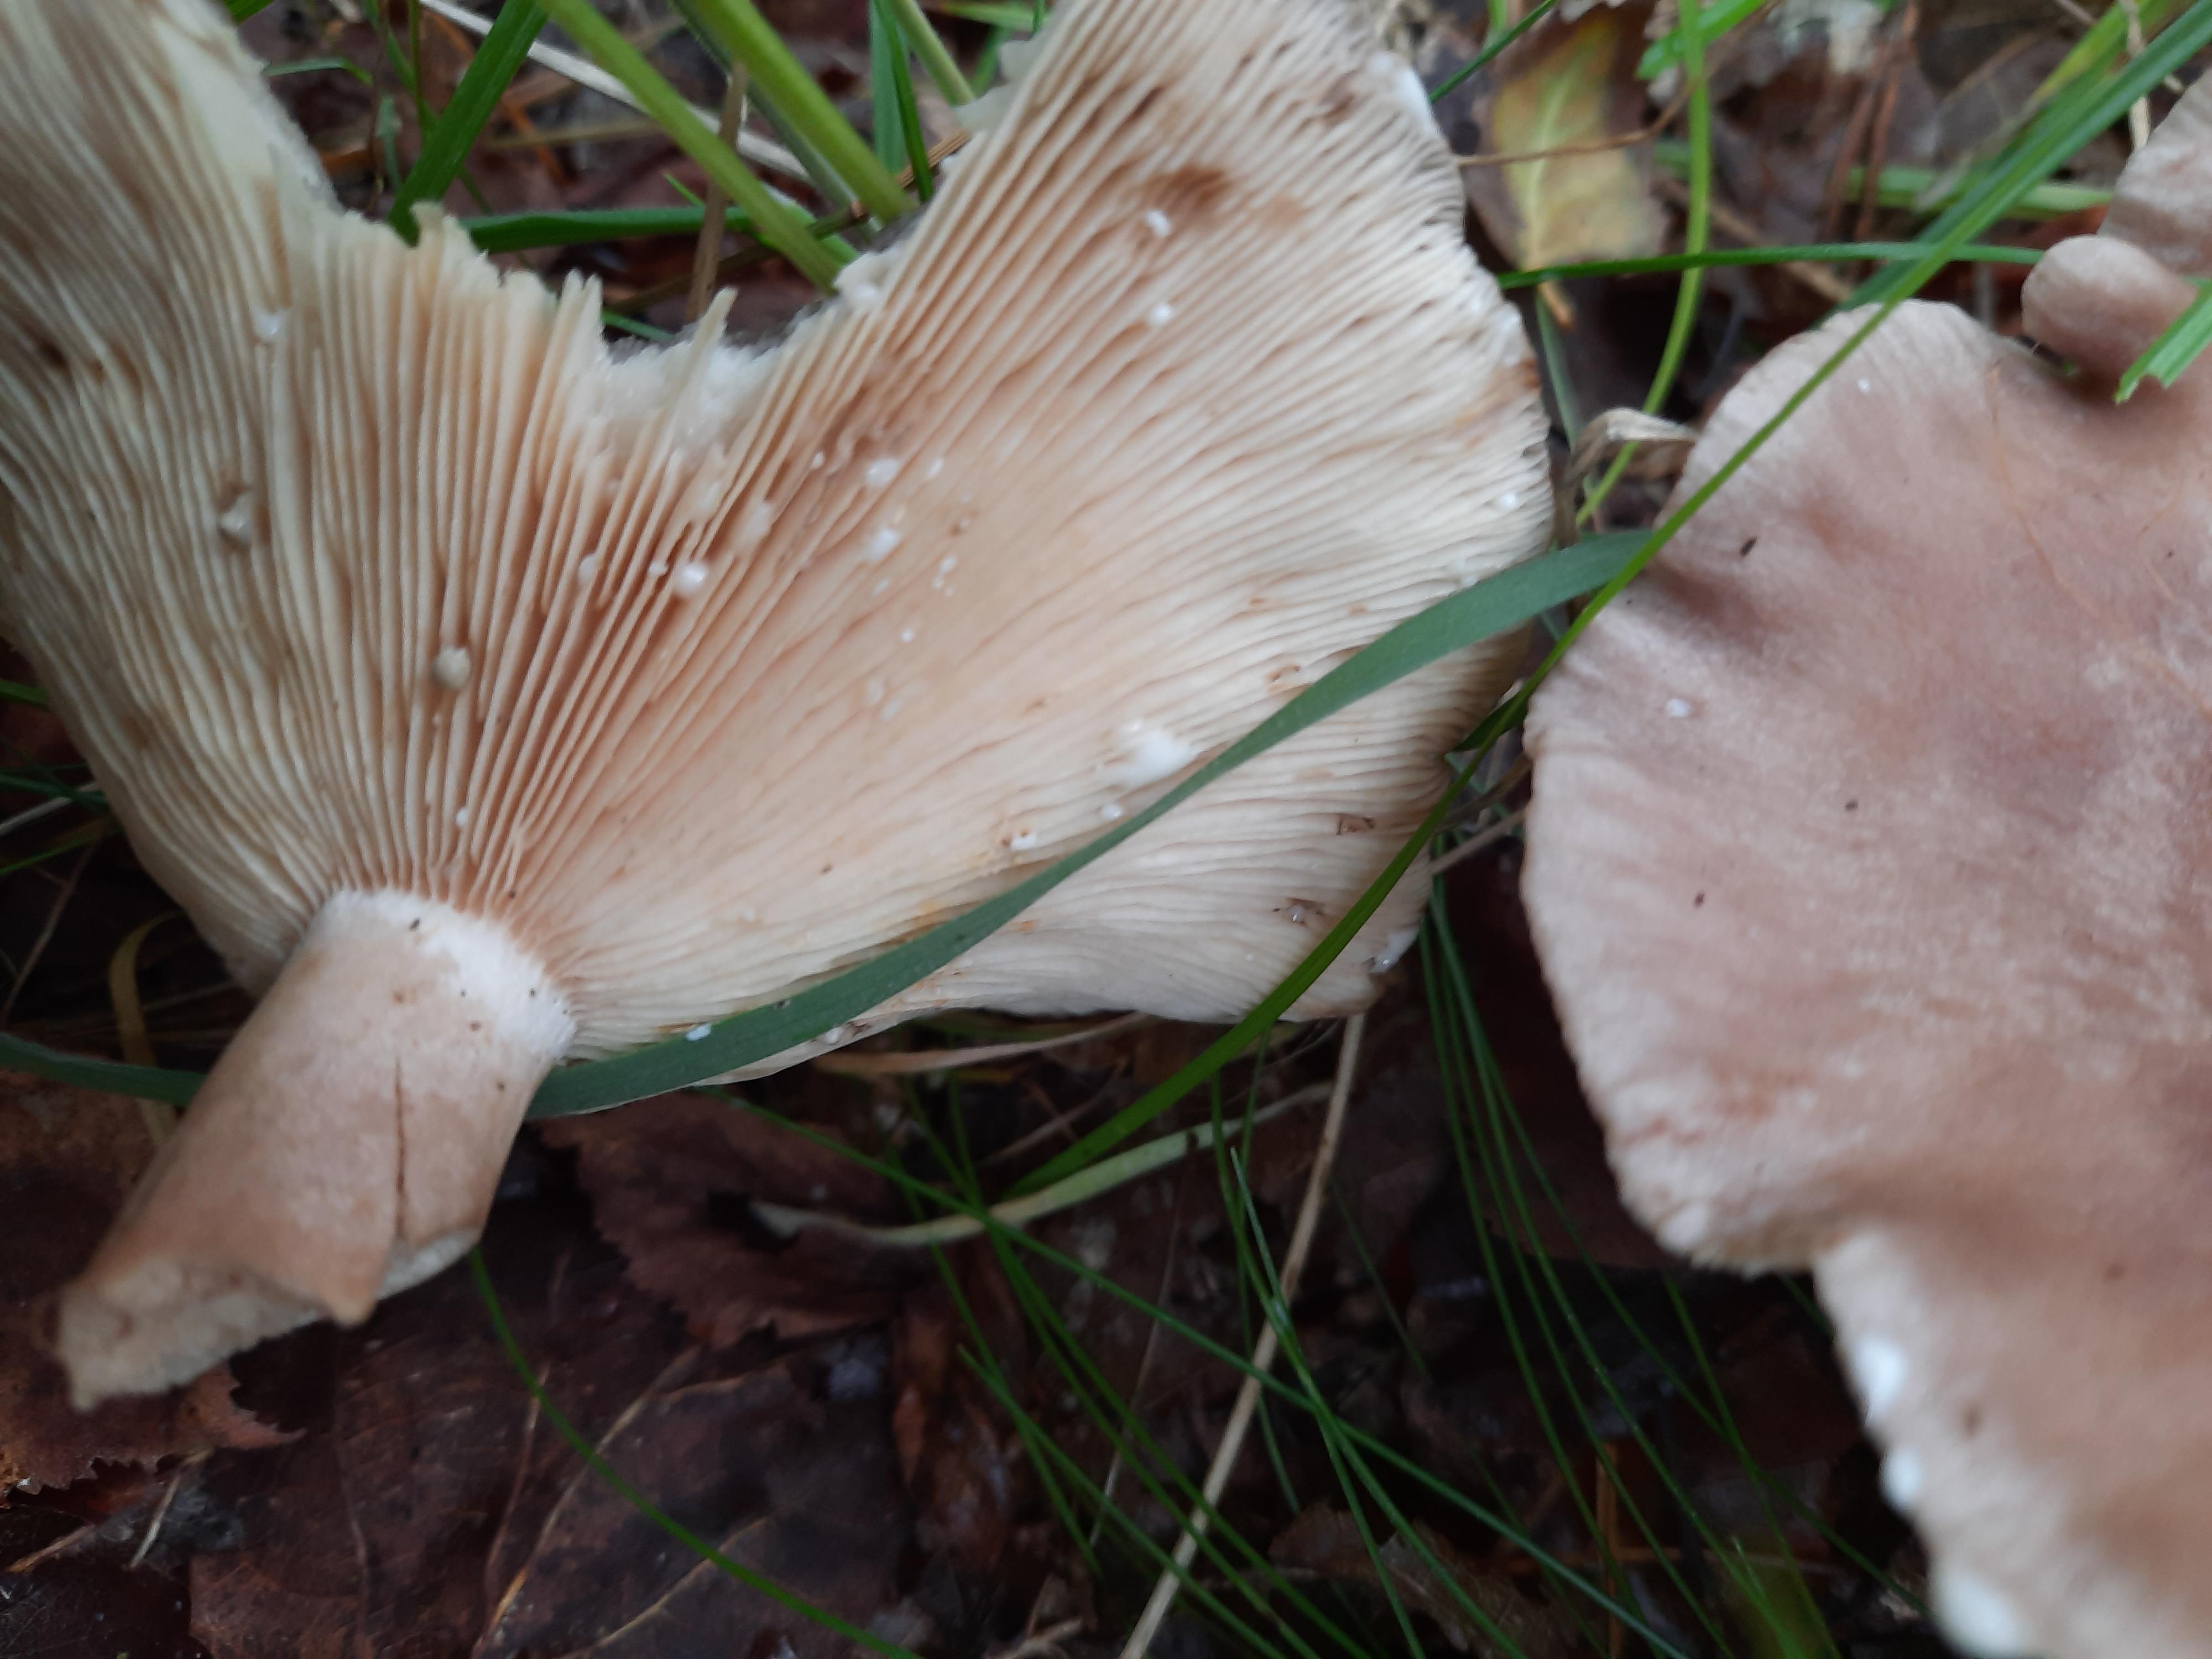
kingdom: Fungi
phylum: Basidiomycota
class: Agaricomycetes
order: Russulales
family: Russulaceae
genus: Lactarius
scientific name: Lactarius vietus
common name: violetgrå mælkehat
